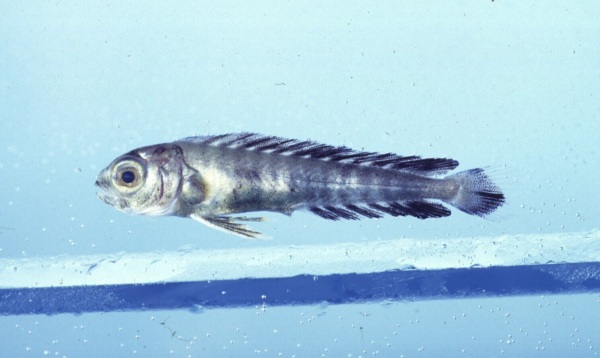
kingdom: Animalia
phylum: Chordata
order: Perciformes
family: Coryphaenidae
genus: Coryphaena
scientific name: Coryphaena
